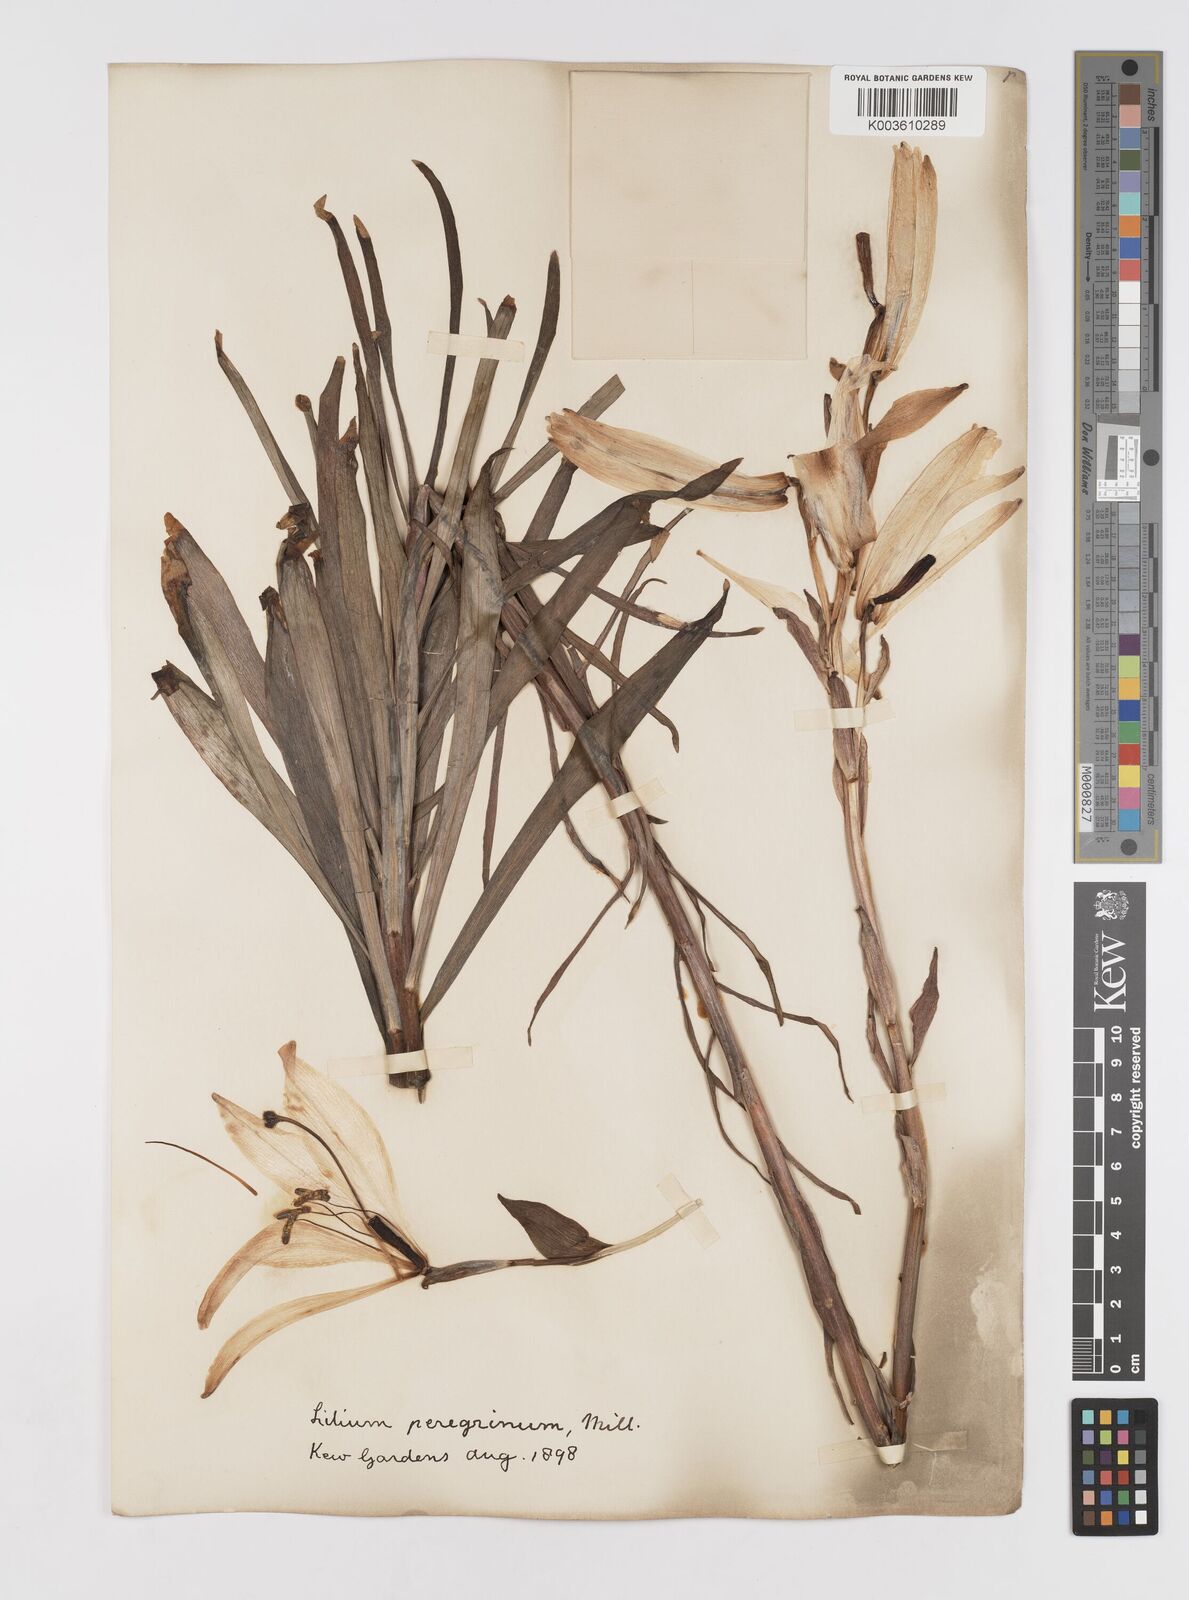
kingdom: Plantae
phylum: Tracheophyta
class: Liliopsida
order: Liliales
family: Liliaceae
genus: Lilium
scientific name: Lilium candidum
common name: Madonna lily
